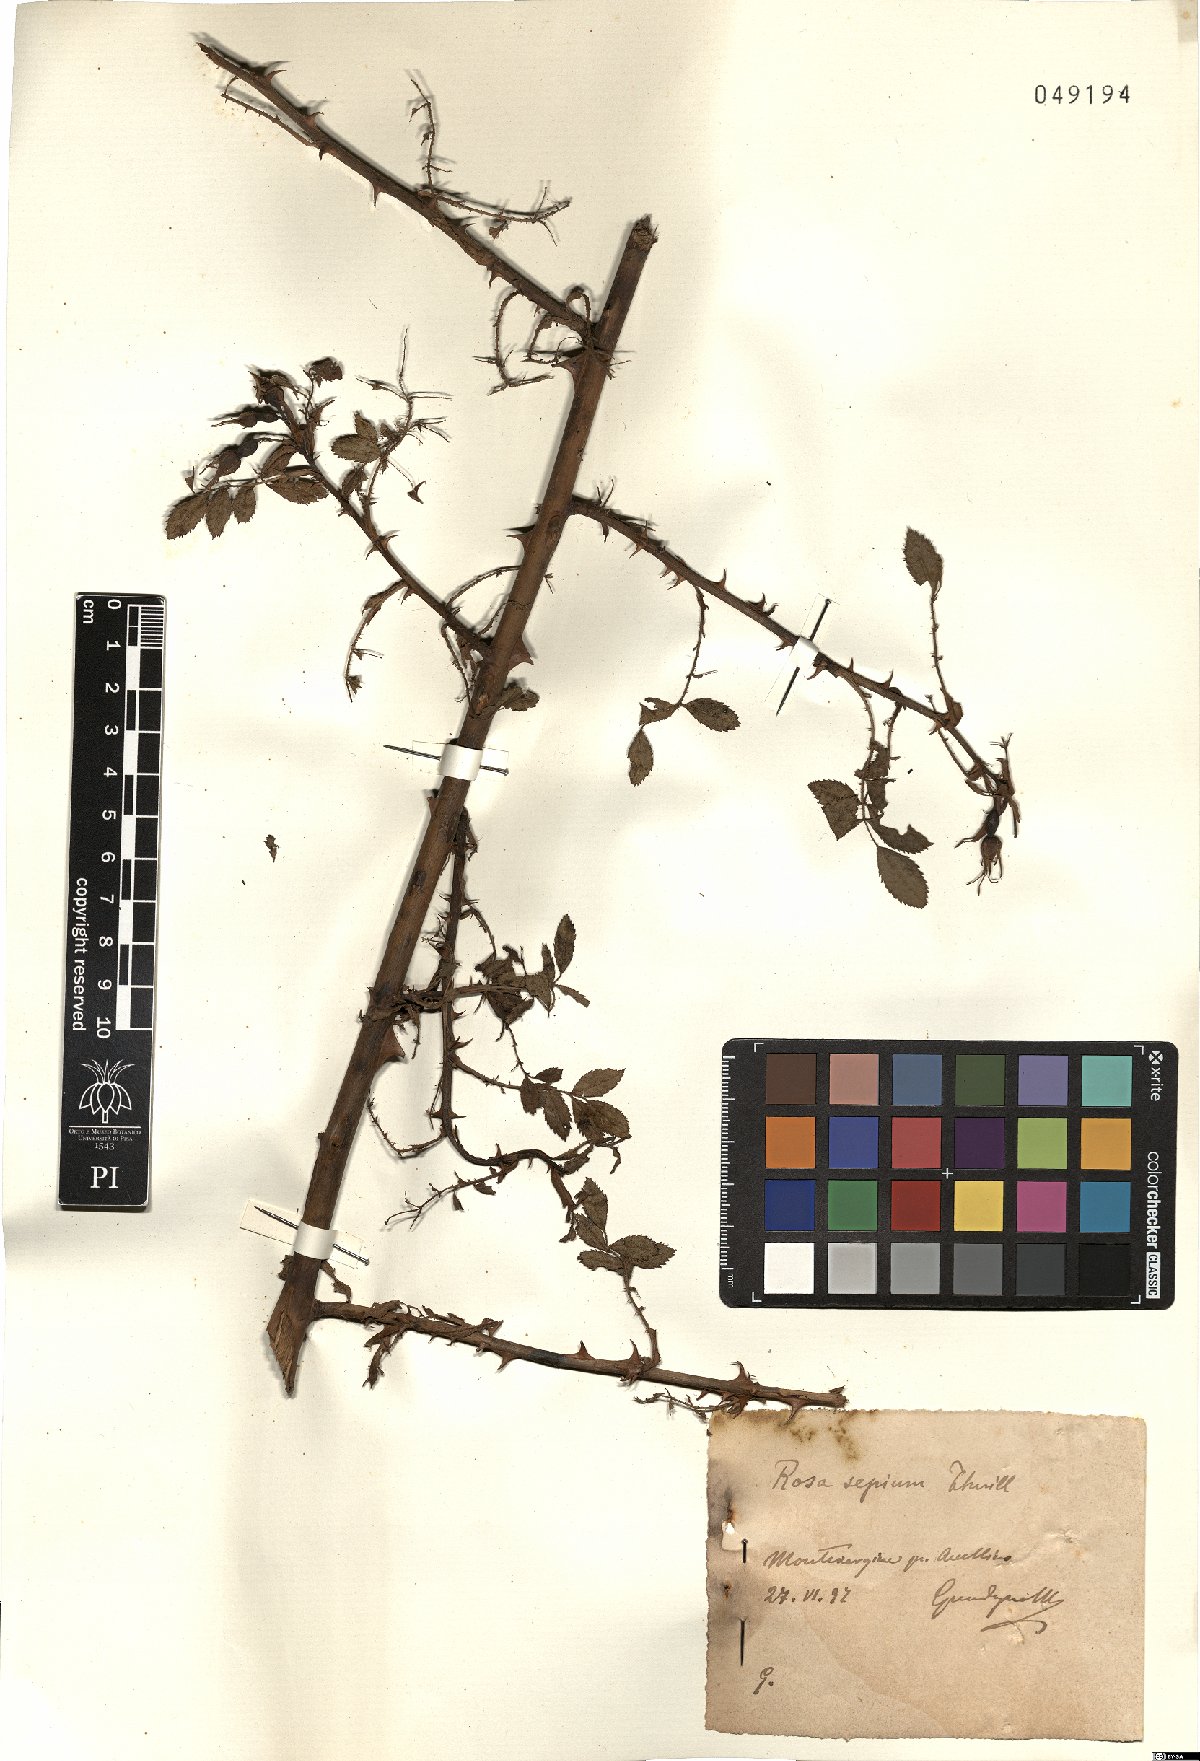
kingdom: Plantae
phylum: Tracheophyta
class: Magnoliopsida
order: Rosales
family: Rosaceae
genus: Rosa
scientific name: Rosa agrestis
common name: Fieldbriar
